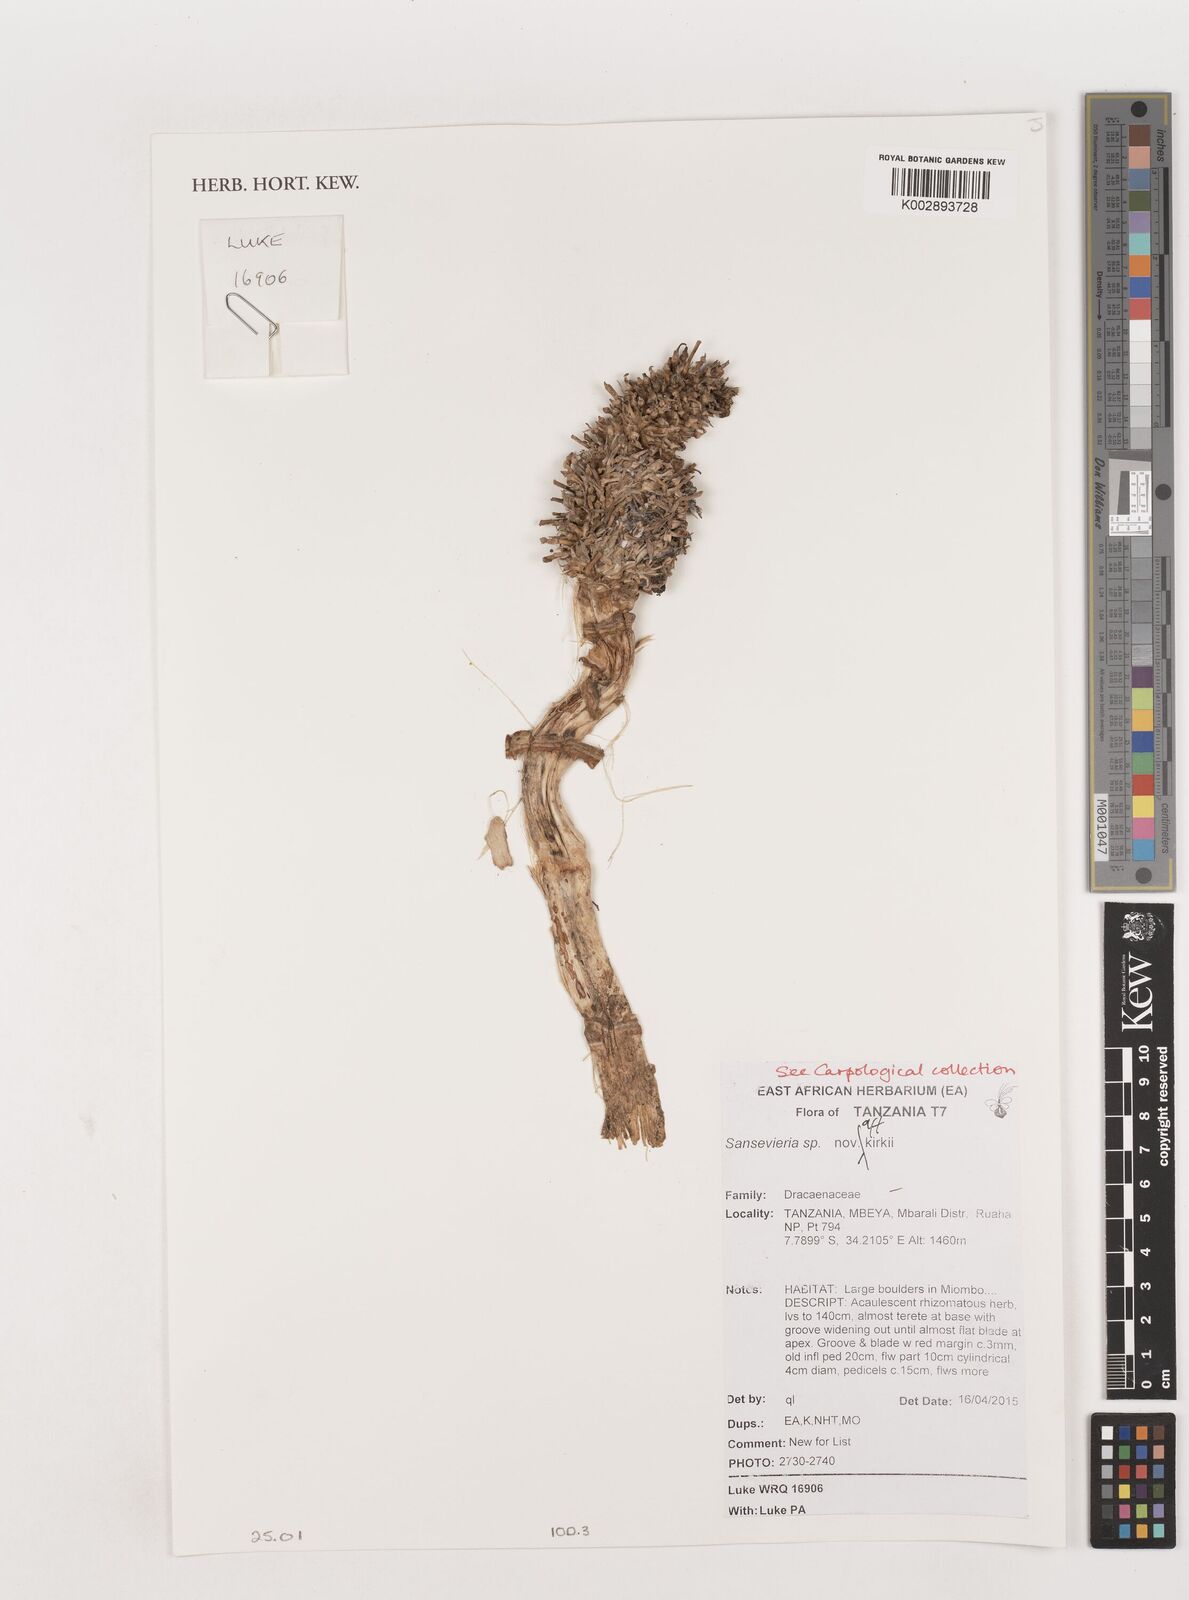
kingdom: Plantae
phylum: Tracheophyta
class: Liliopsida
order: Asparagales
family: Asparagaceae
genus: Dracaena
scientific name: Dracaena pethera
